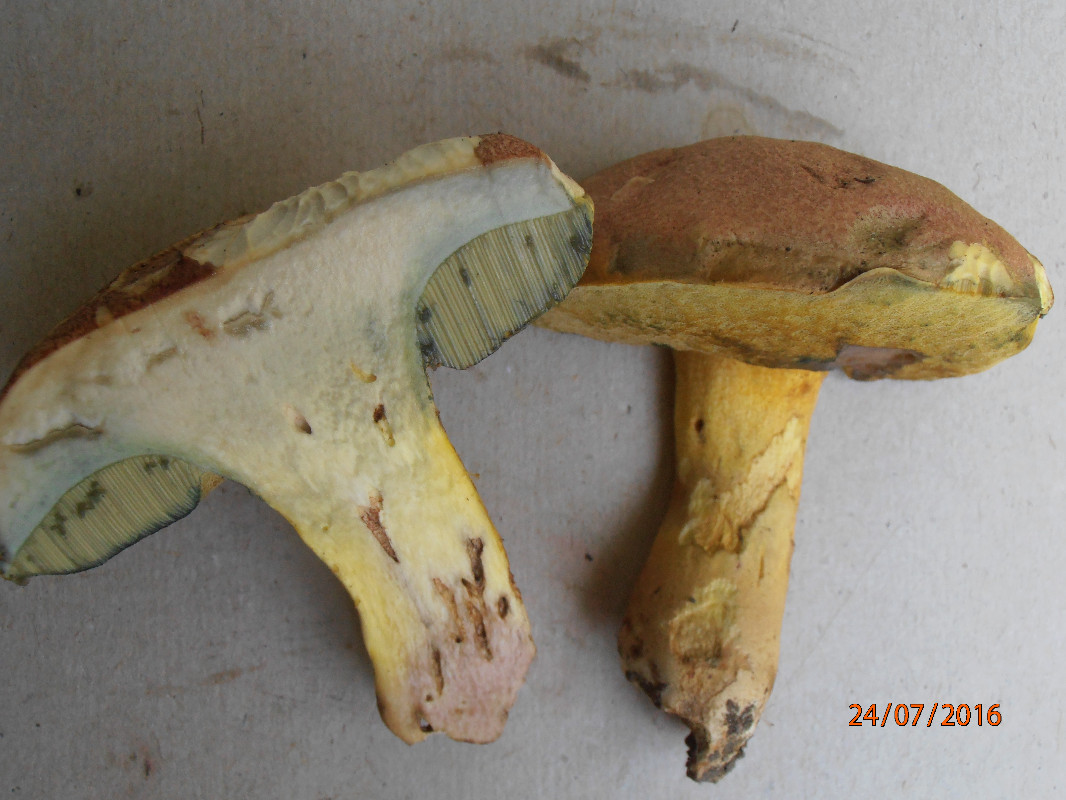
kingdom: Fungi
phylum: Basidiomycota
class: Agaricomycetes
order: Boletales
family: Boletaceae
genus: Butyriboletus
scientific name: Butyriboletus fuscoroseus
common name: brunrosa rørhat
